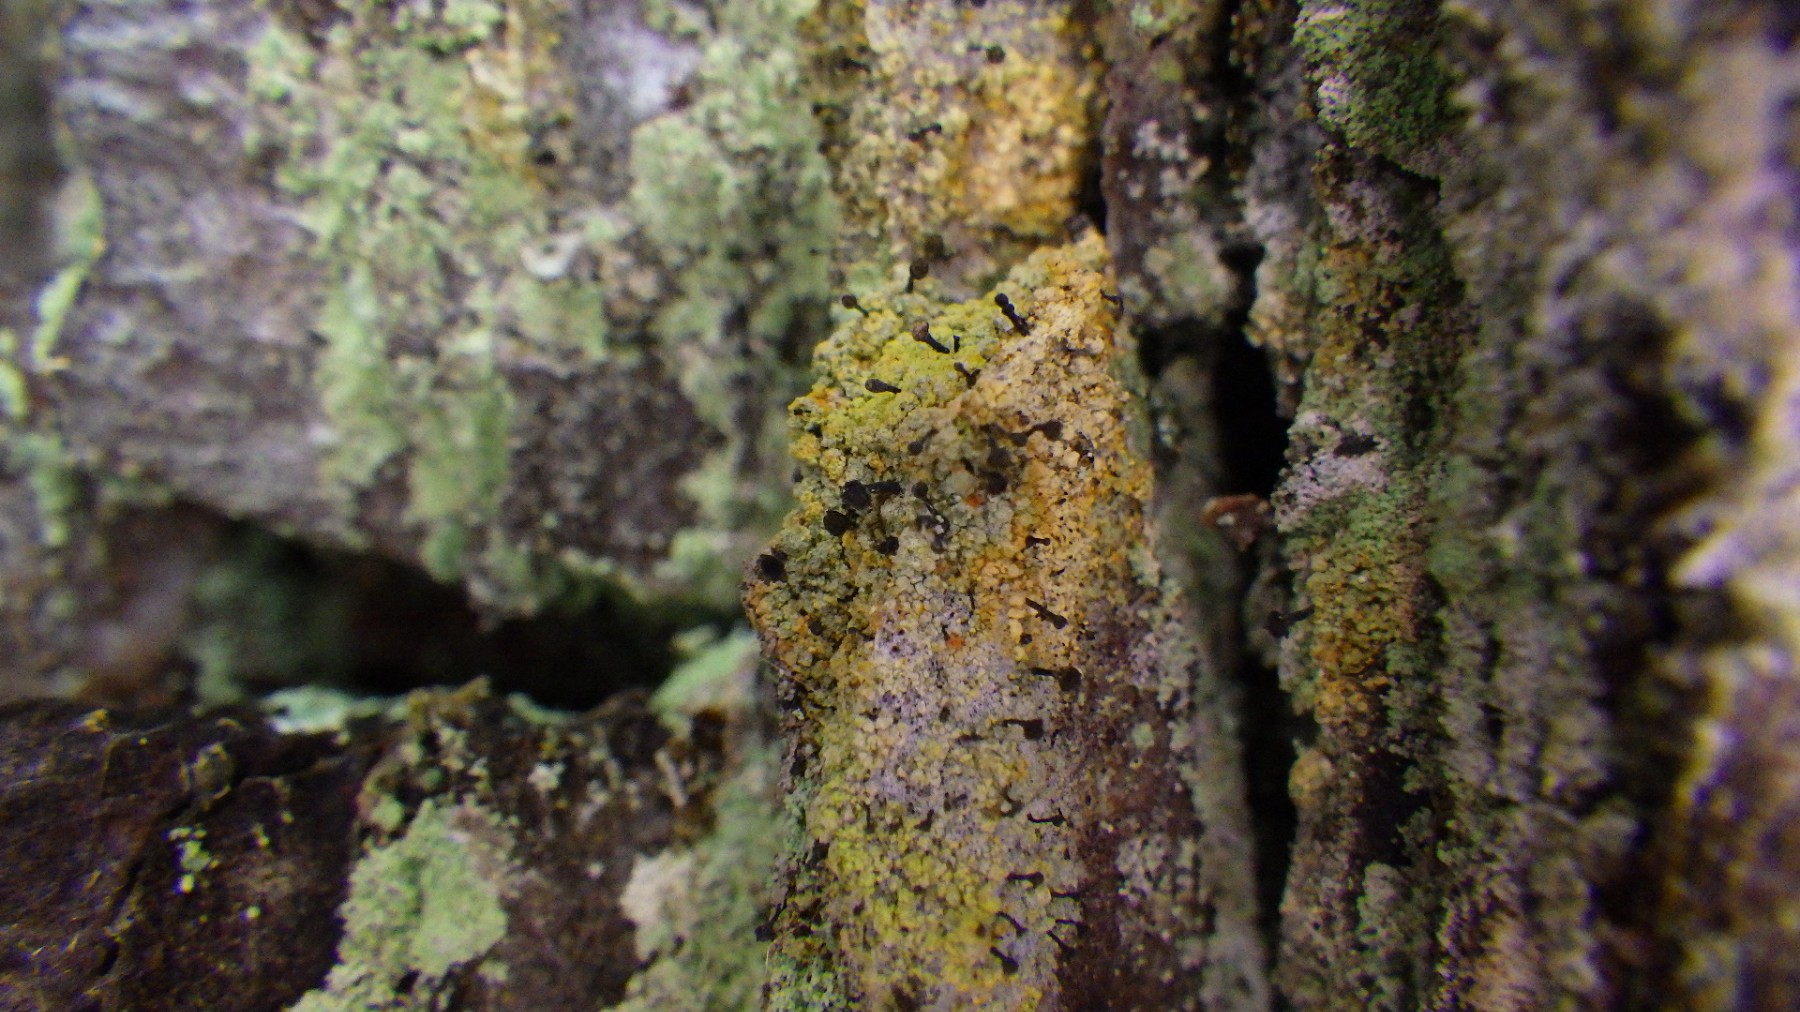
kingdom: Fungi
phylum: Ascomycota
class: Coniocybomycetes
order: Coniocybales
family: Coniocybaceae
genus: Chaenotheca
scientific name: Chaenotheca ferruginea
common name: rustbrun knappenålslav
